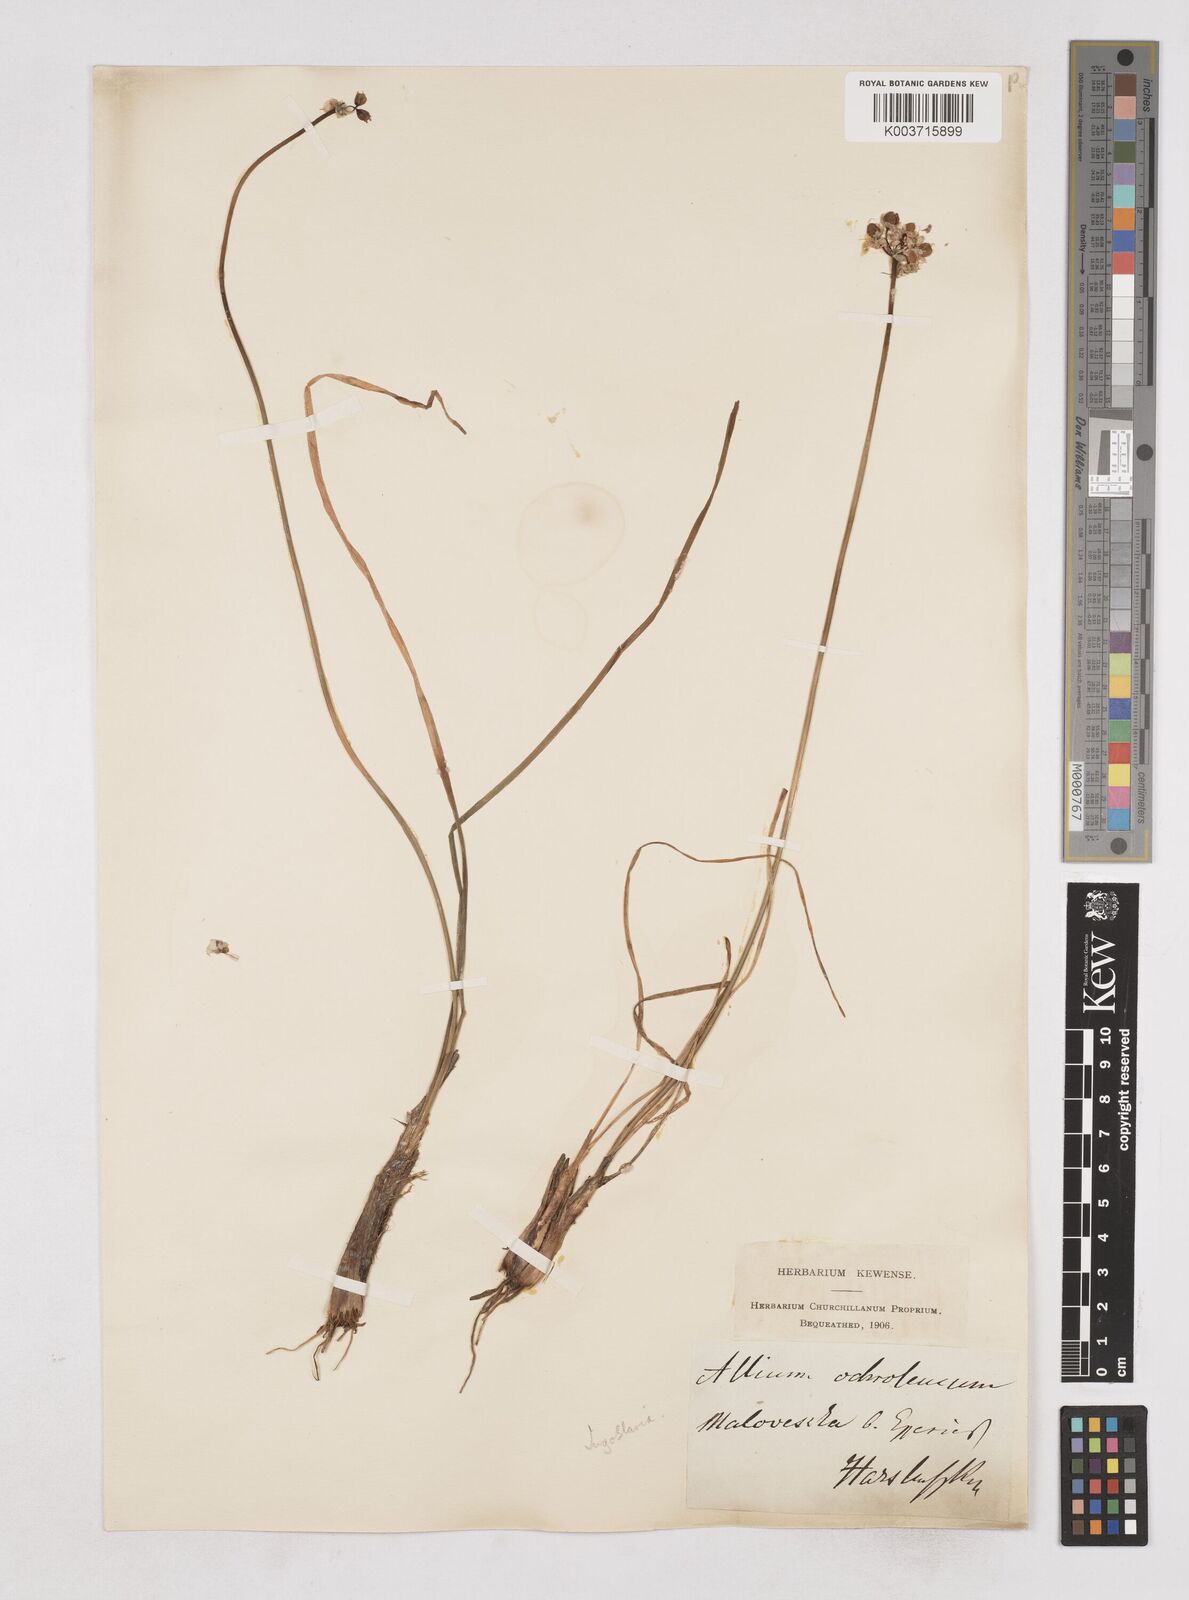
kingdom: Plantae
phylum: Tracheophyta
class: Liliopsida
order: Asparagales
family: Amaryllidaceae
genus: Allium
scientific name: Allium ericetorum
